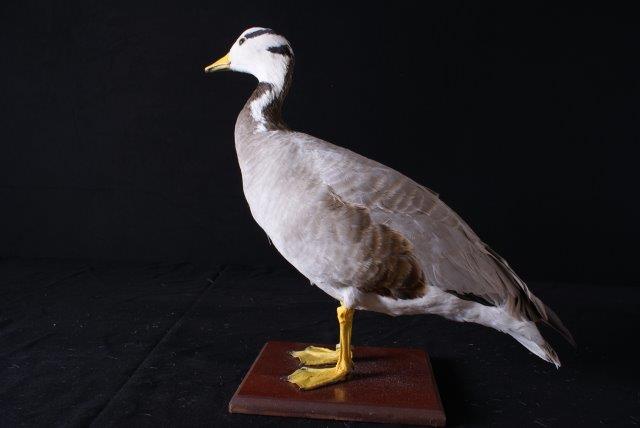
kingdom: Animalia
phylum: Chordata
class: Aves
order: Anseriformes
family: Anatidae
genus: Anser
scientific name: Anser indicus
